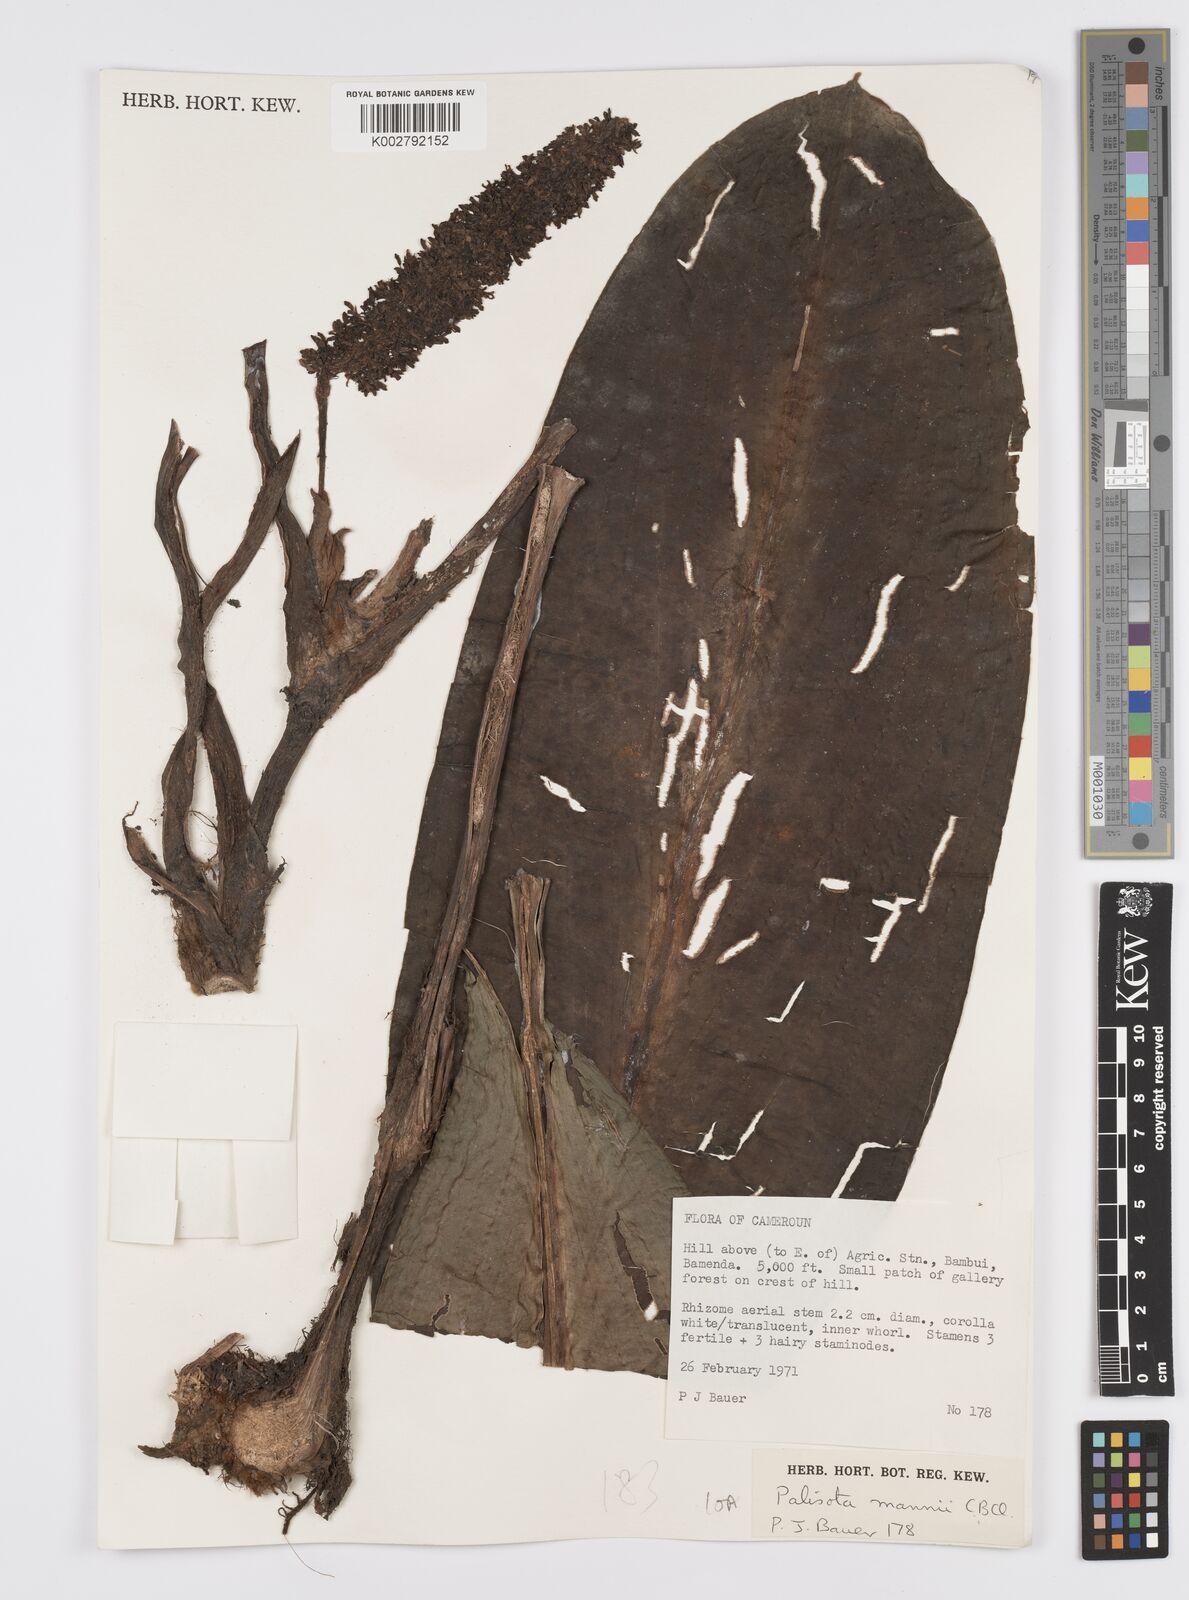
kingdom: Plantae
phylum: Tracheophyta
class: Liliopsida
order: Commelinales
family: Commelinaceae
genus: Palisota
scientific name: Palisota mannii
